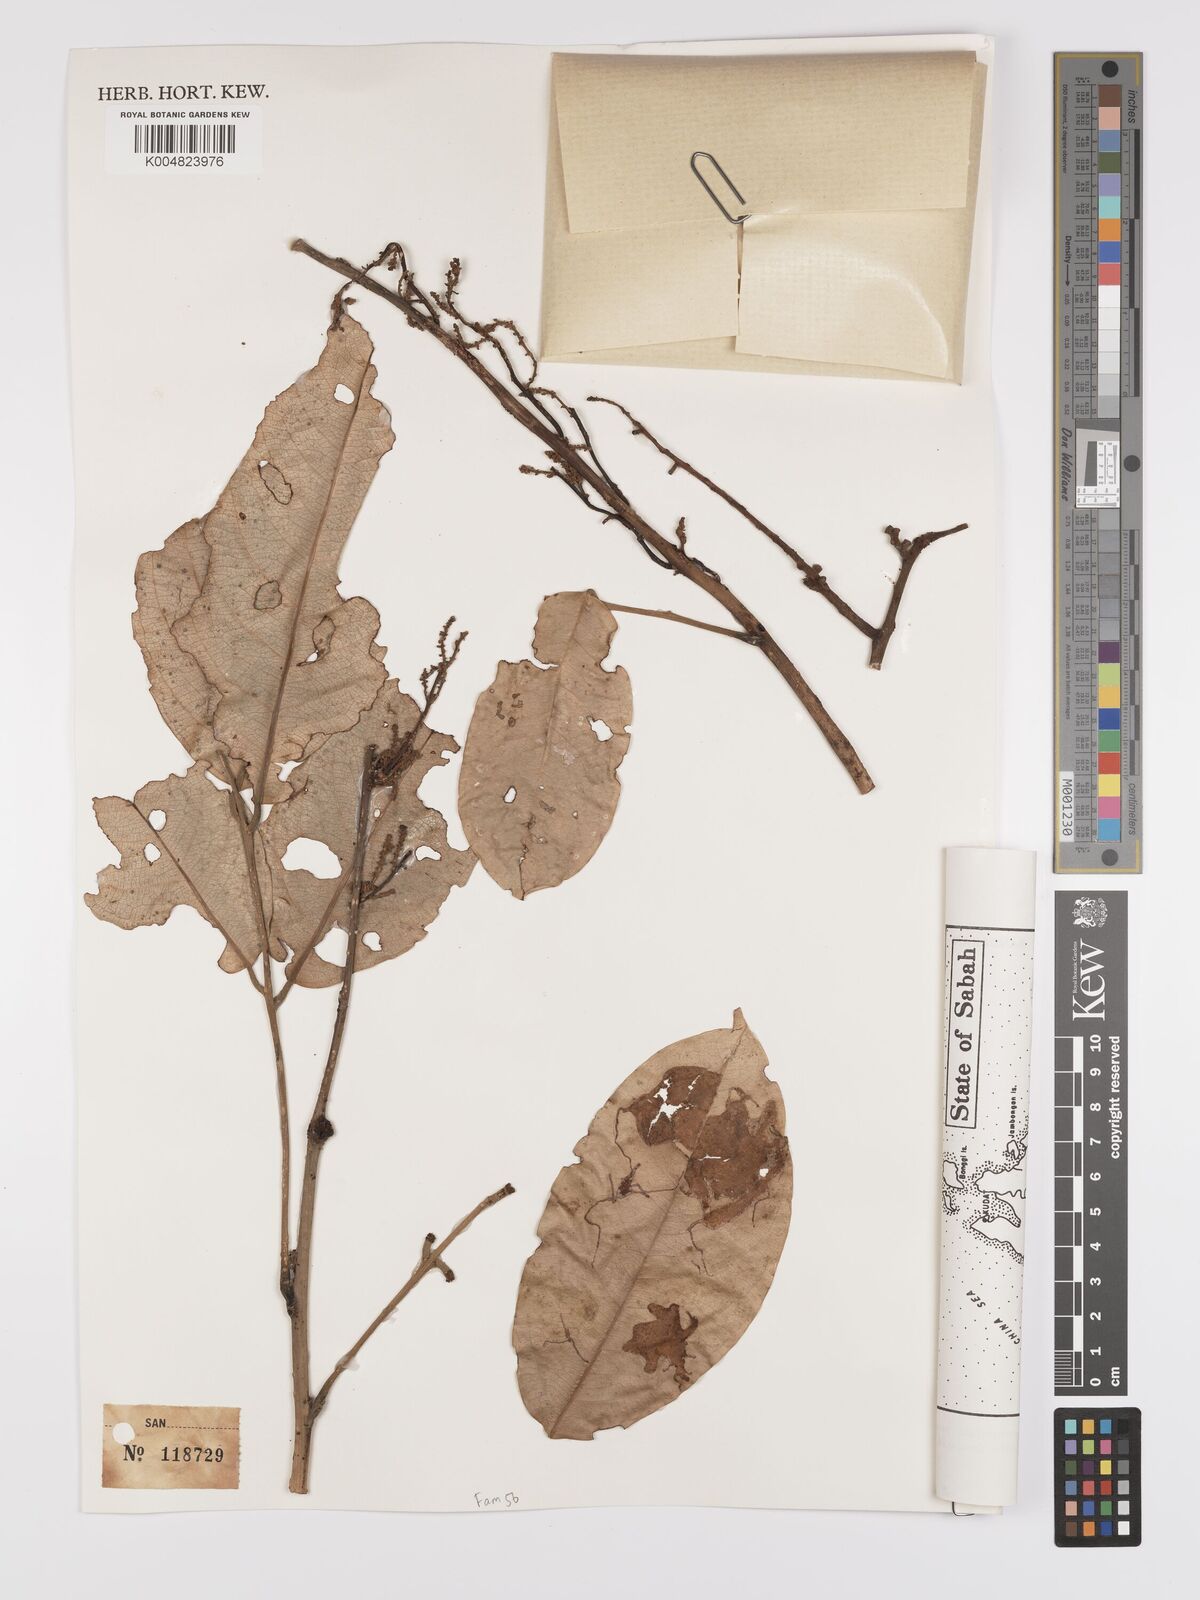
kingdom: Plantae
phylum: Tracheophyta
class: Magnoliopsida
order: Oxalidales
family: Connaraceae
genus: Connarus
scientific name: Connarus grandis
